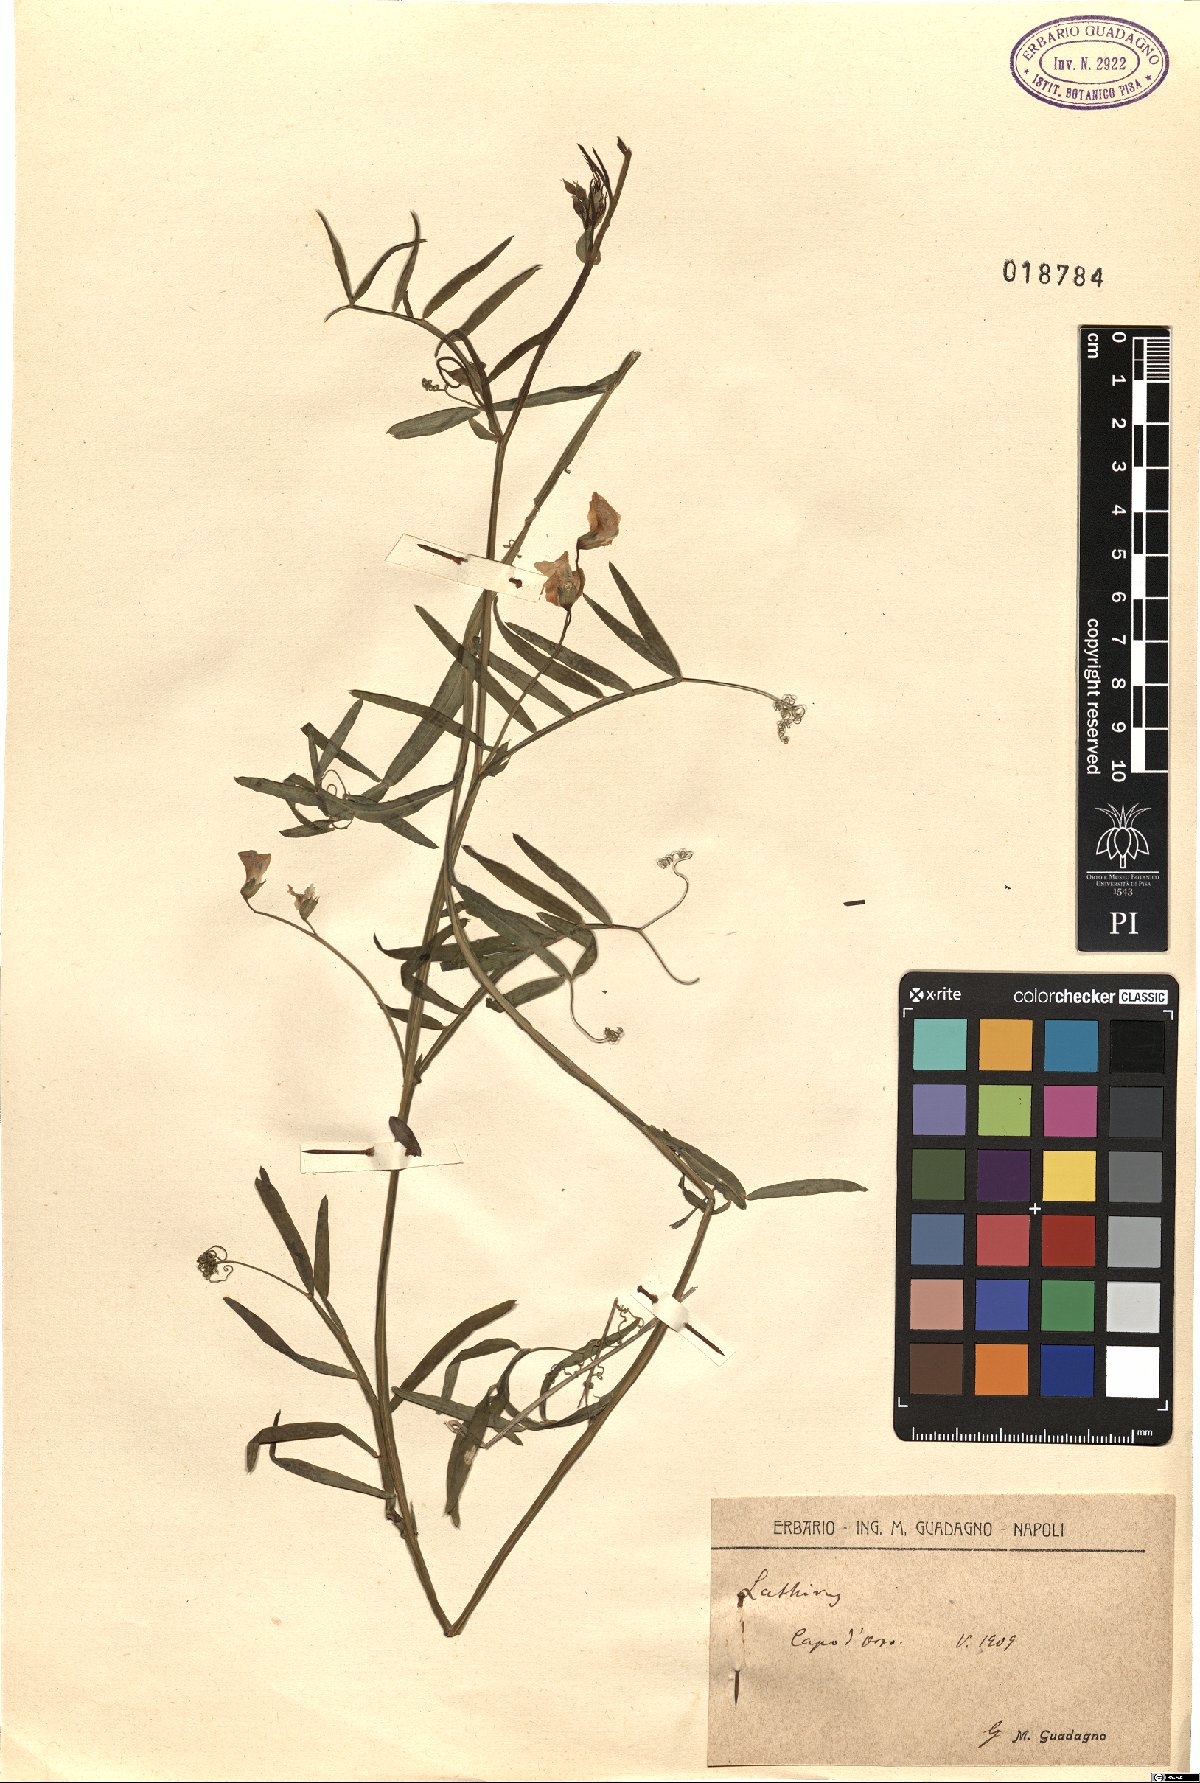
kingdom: Plantae
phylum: Tracheophyta
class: Magnoliopsida
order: Fabales
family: Fabaceae
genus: Lathyrus
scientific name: Lathyrus
